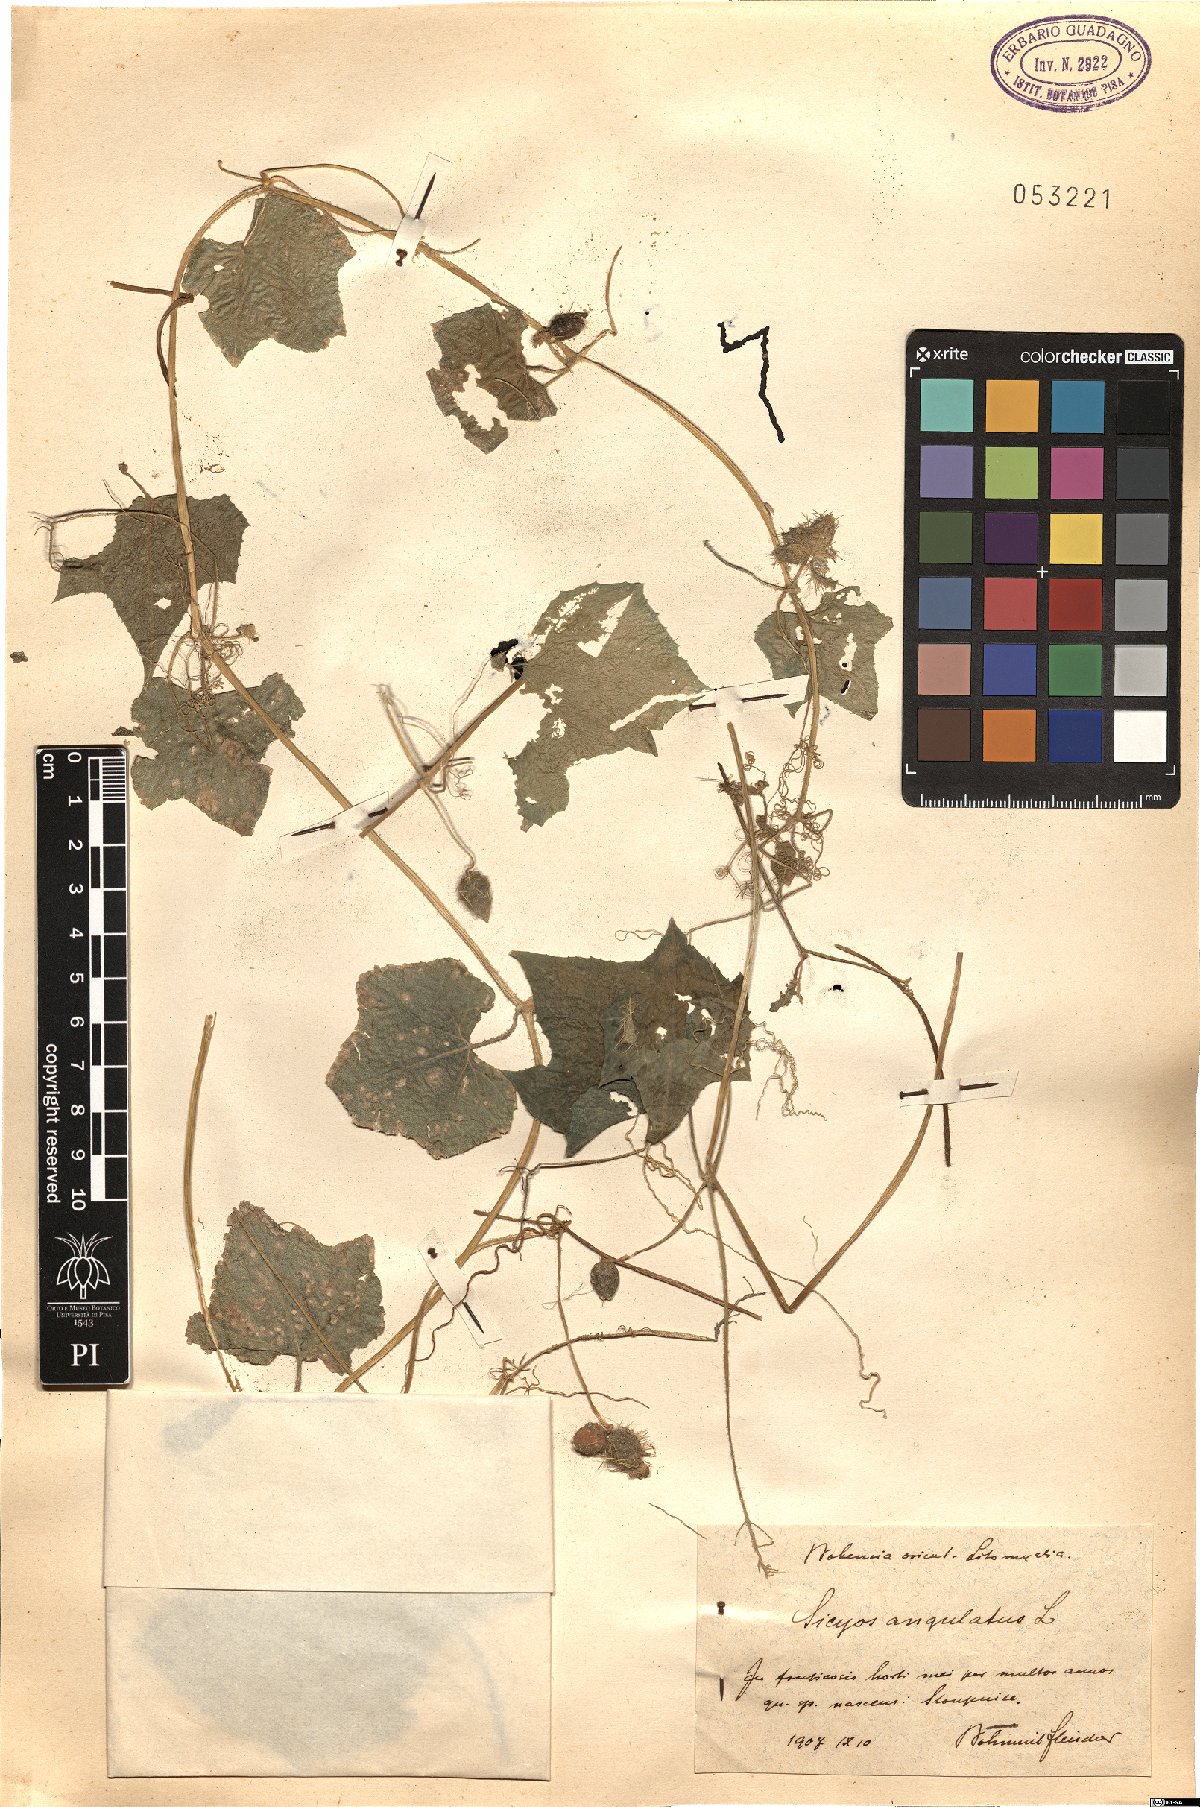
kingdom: Plantae
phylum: Tracheophyta
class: Magnoliopsida
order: Cucurbitales
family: Cucurbitaceae
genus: Sicyos
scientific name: Sicyos angulatus
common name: Angled burr cucumber
